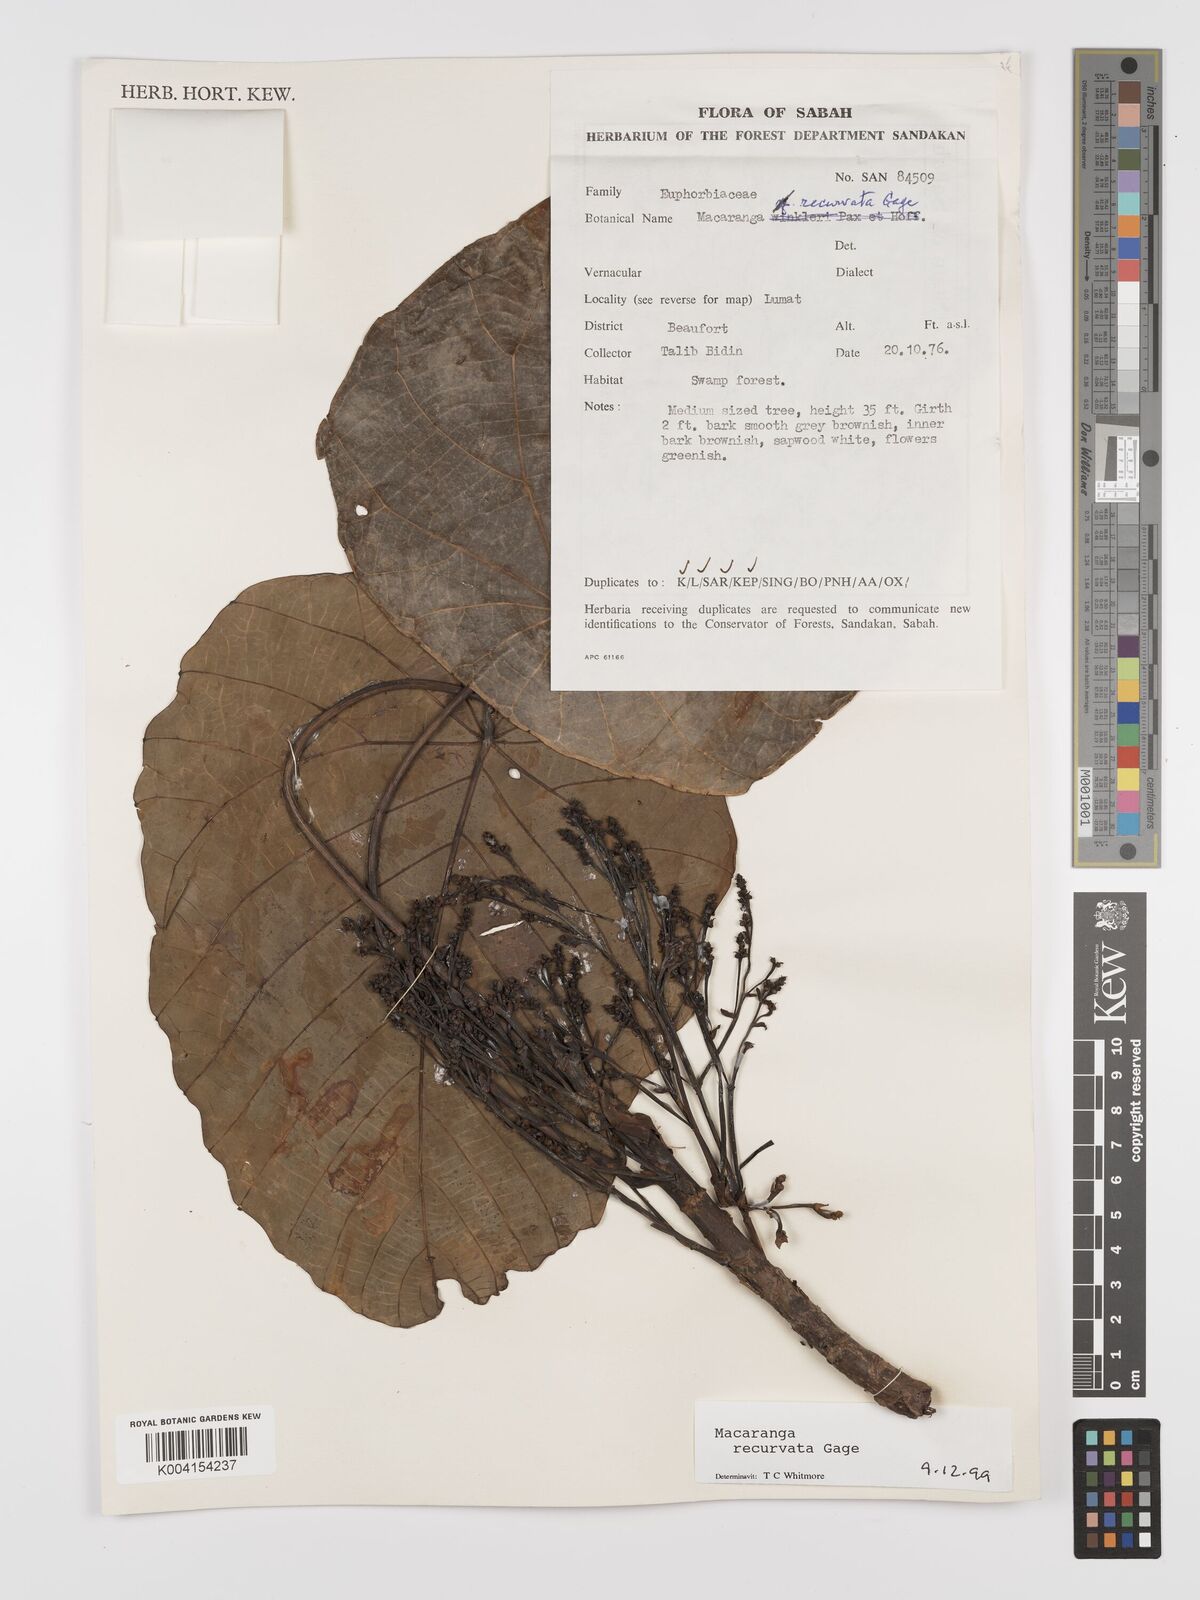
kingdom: Plantae
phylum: Tracheophyta
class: Magnoliopsida
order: Malpighiales
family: Euphorbiaceae
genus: Macaranga
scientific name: Macaranga recurvata
